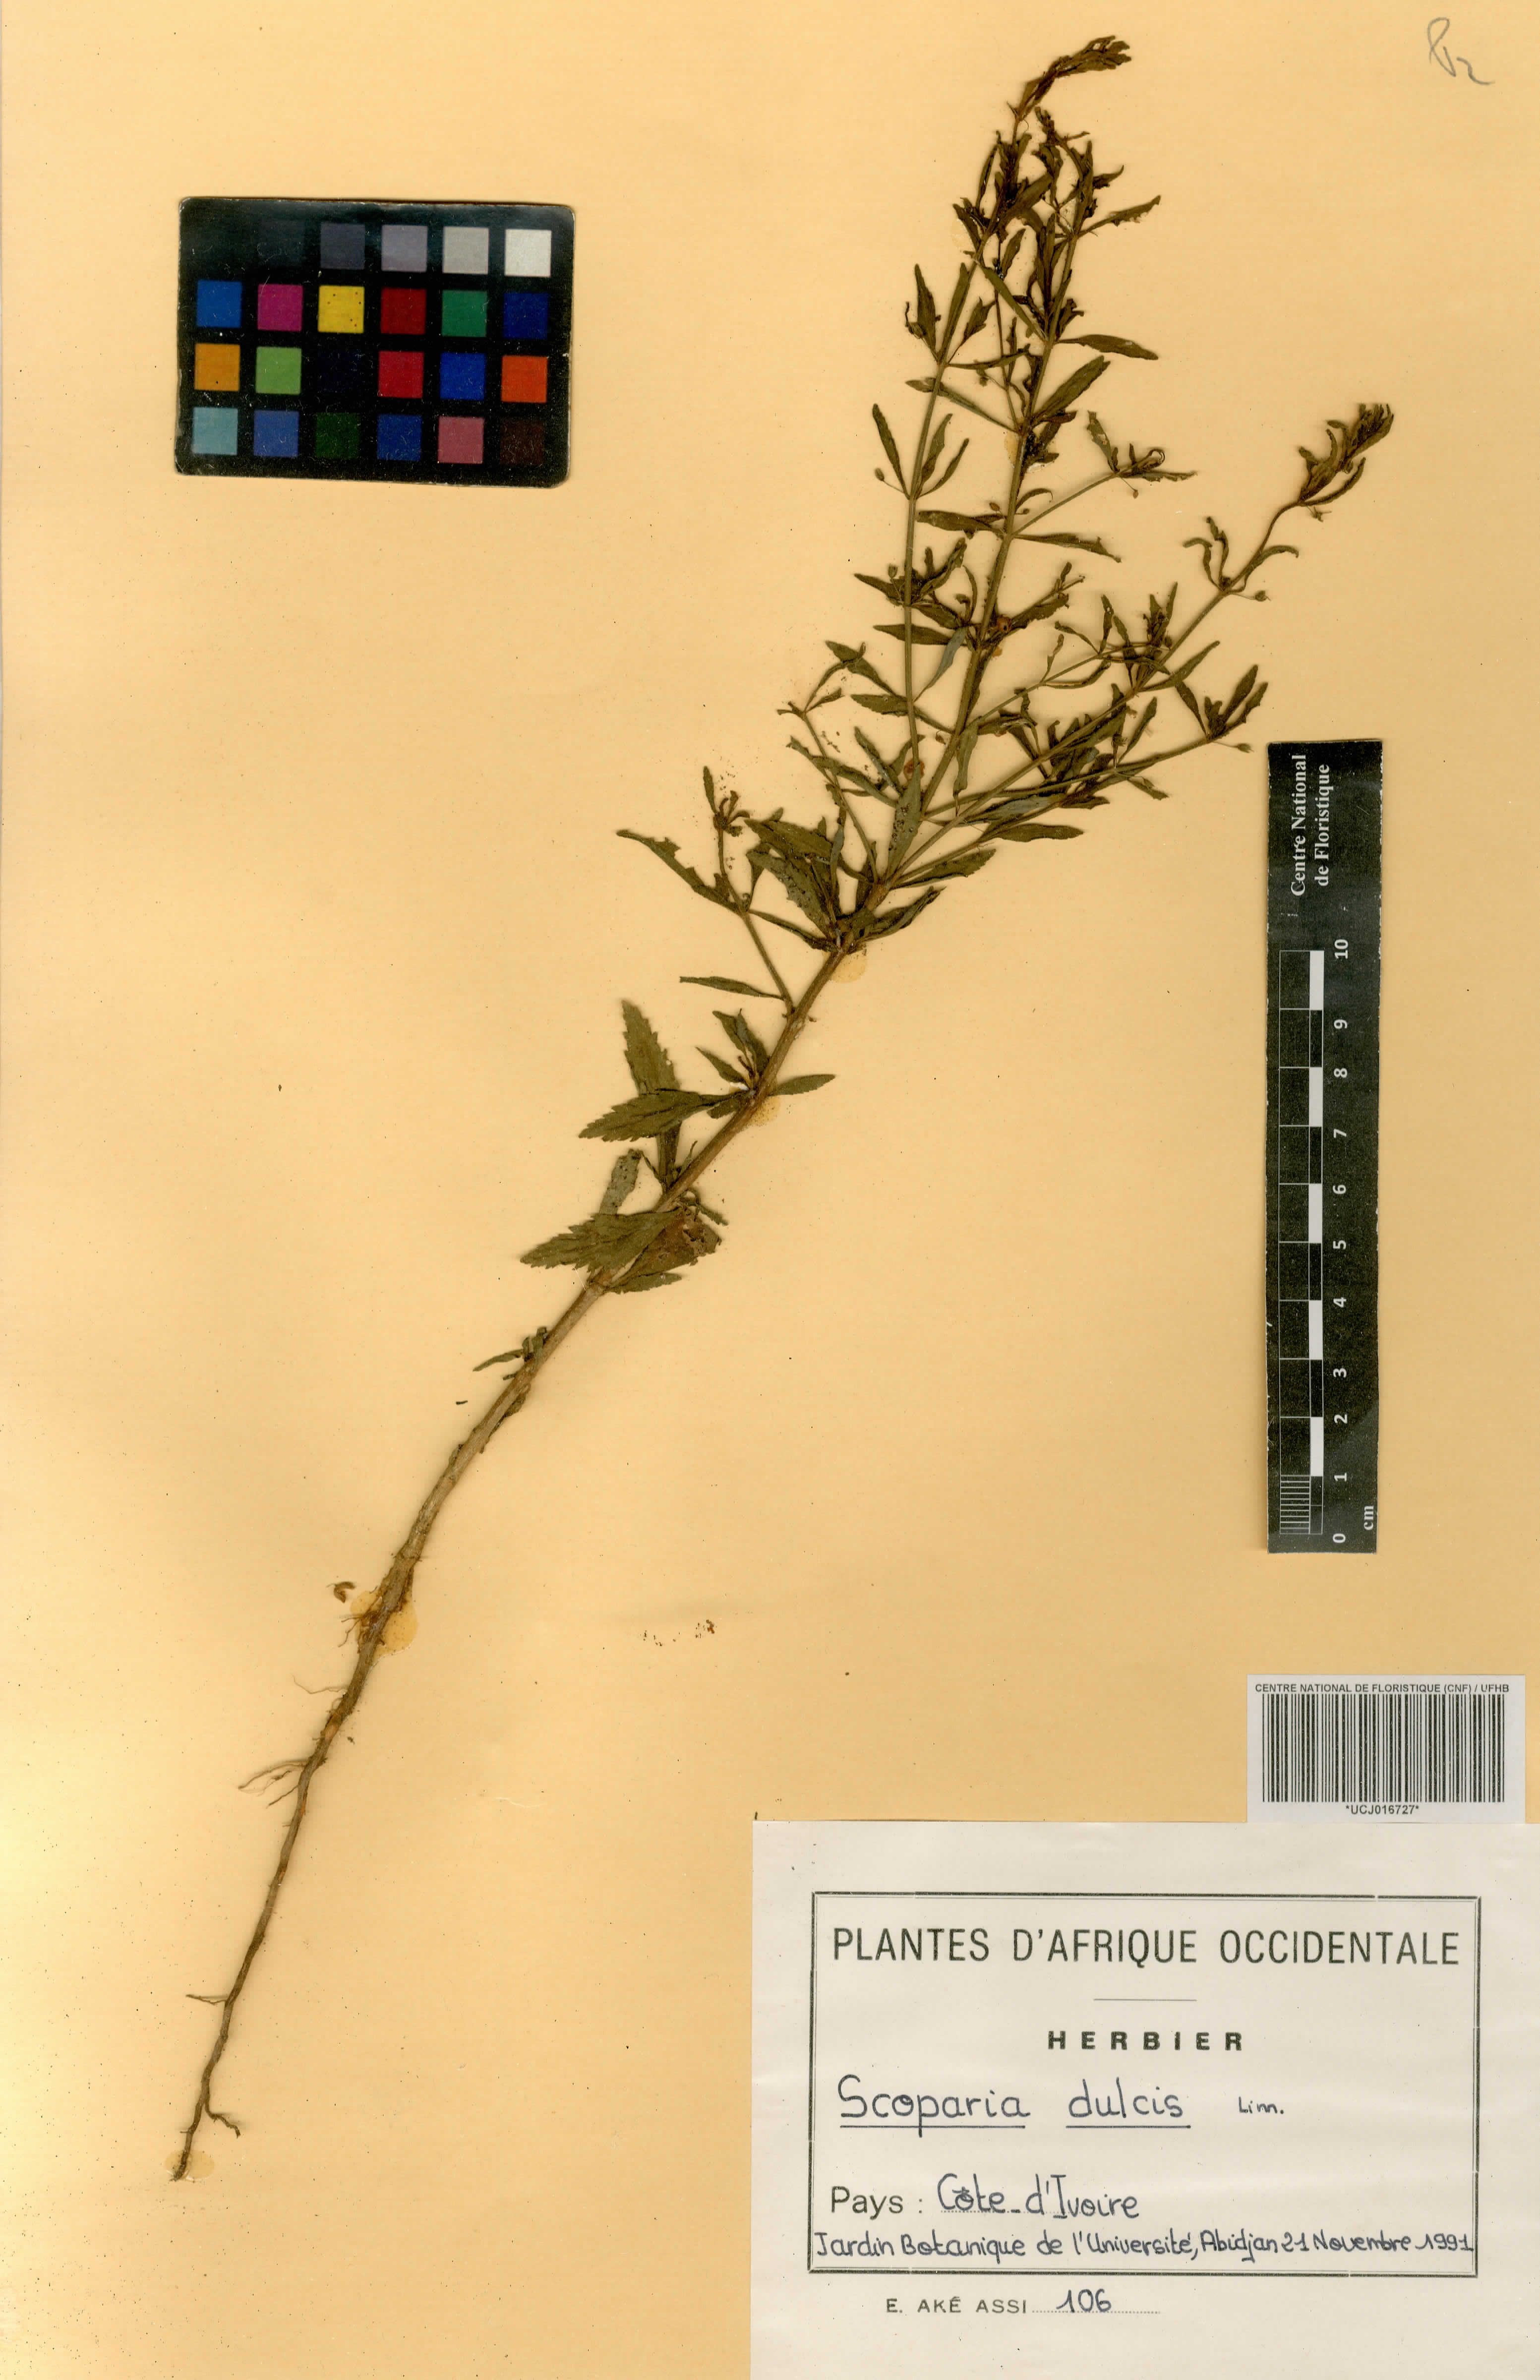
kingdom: Plantae
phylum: Tracheophyta
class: Magnoliopsida
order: Lamiales
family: Plantaginaceae
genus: Scoparia
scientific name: Scoparia dulcis
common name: Scoparia-weed
